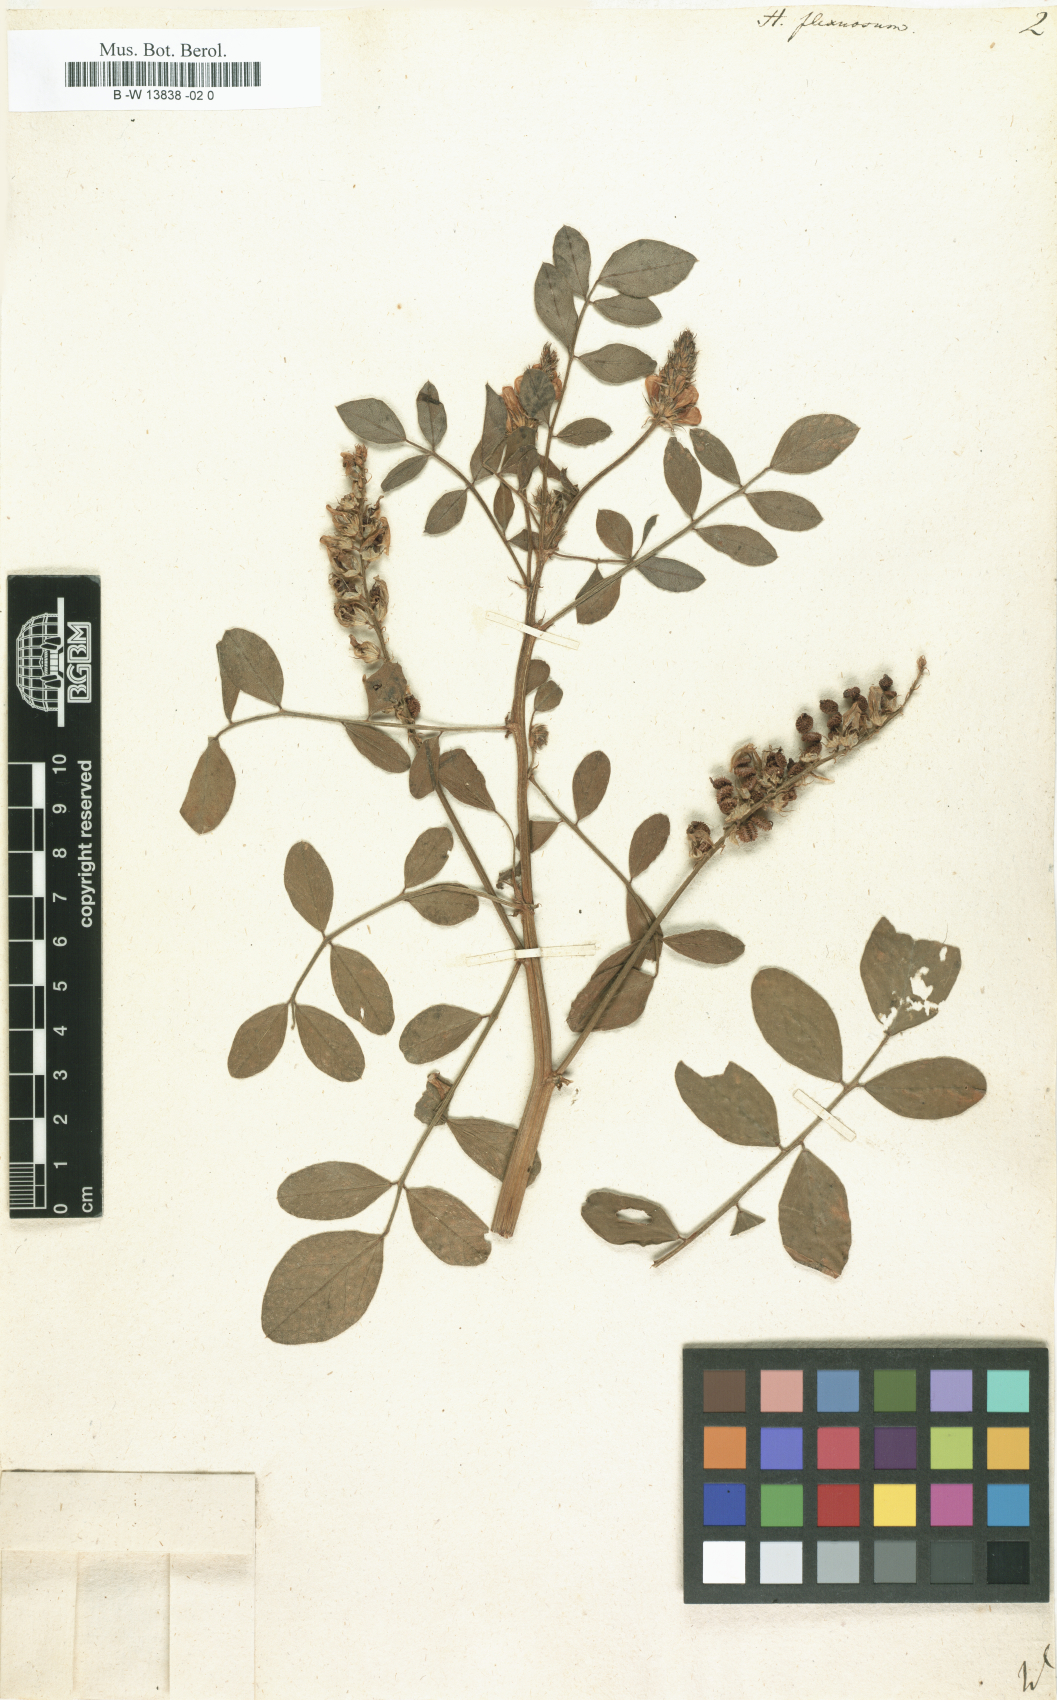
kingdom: Plantae
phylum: Tracheophyta
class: Magnoliopsida
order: Fabales
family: Fabaceae
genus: Hedysarum
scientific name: Hedysarum anomalum
